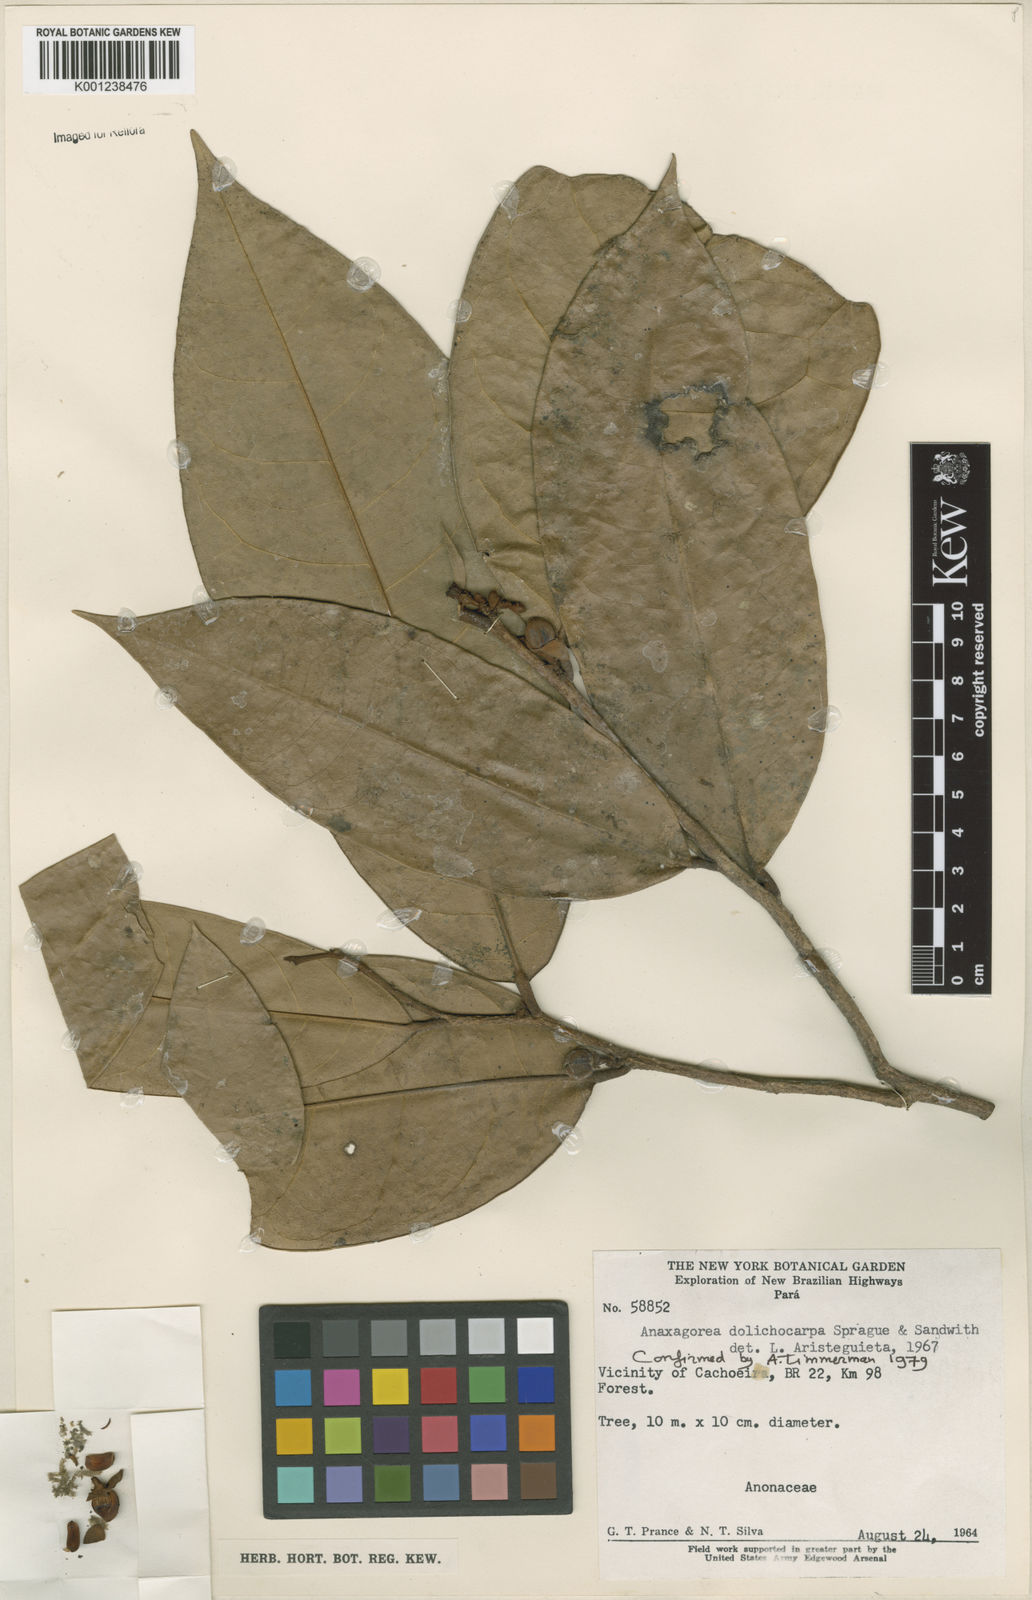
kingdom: Plantae
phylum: Tracheophyta
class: Magnoliopsida
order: Magnoliales
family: Annonaceae
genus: Anaxagorea
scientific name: Anaxagorea dolichocarpa
